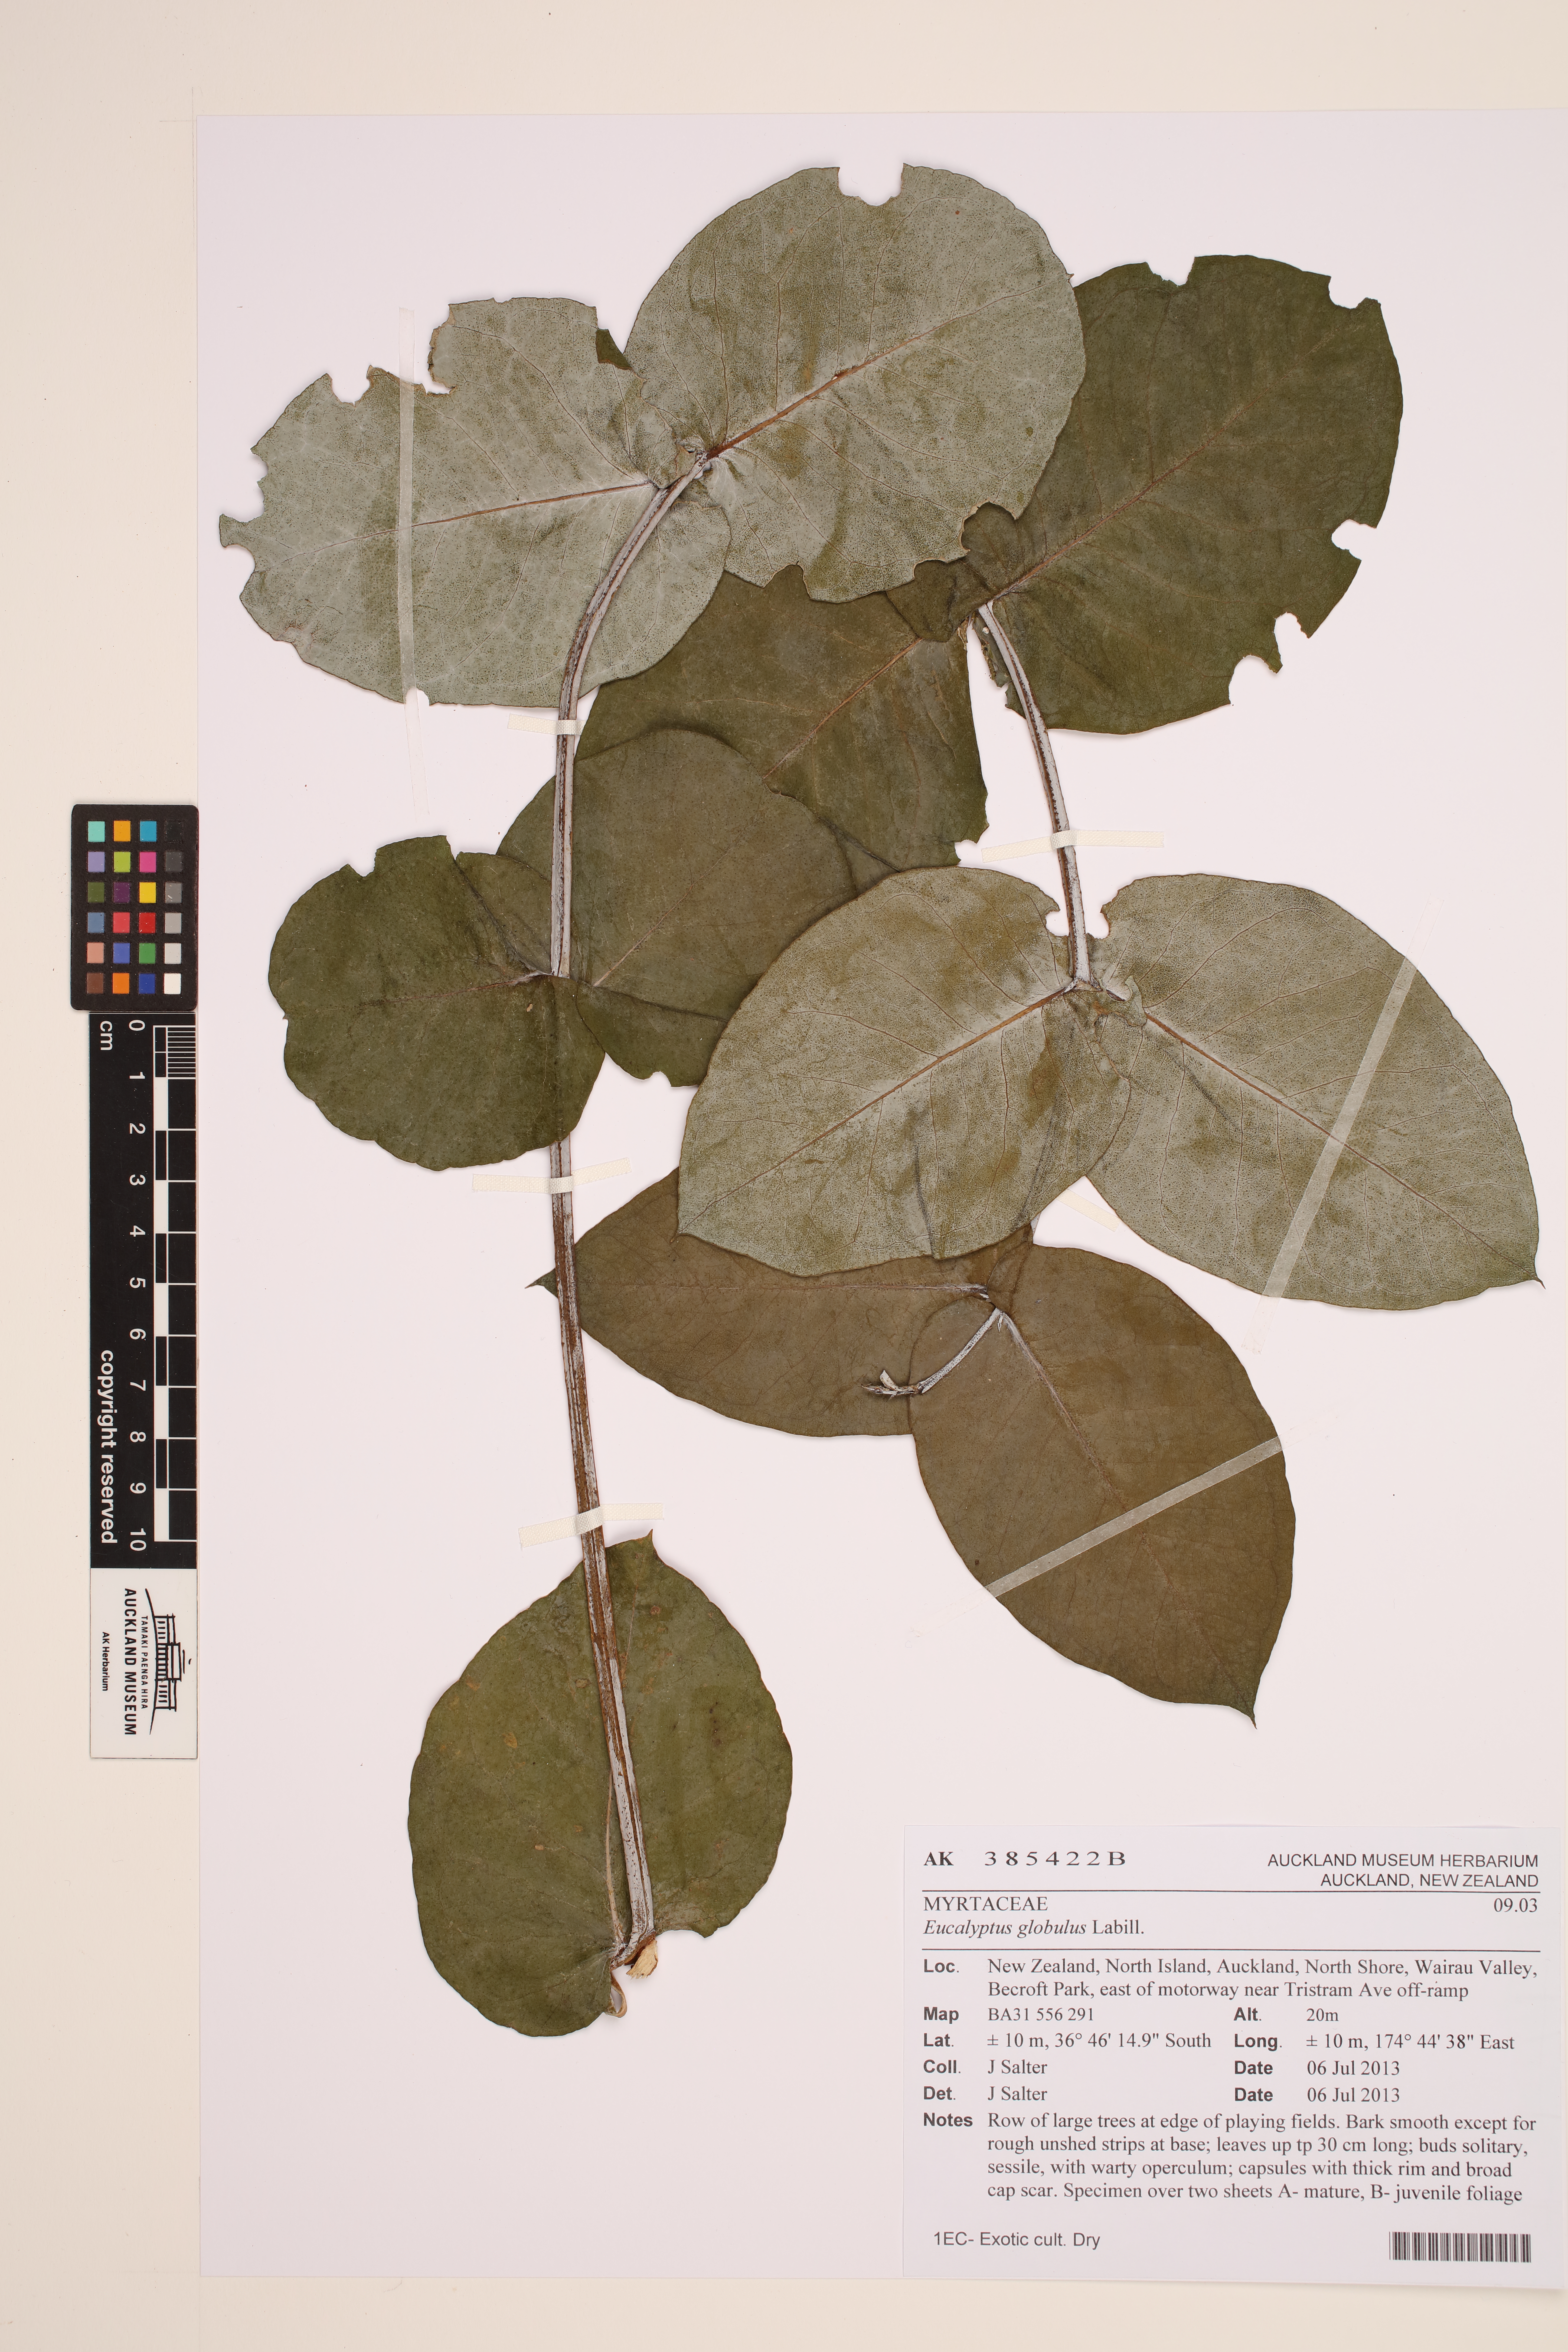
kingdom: Plantae
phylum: Tracheophyta
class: Magnoliopsida
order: Myrtales
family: Myrtaceae
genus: Eucalyptus
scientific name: Eucalyptus globulus
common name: Southern blue-gum
